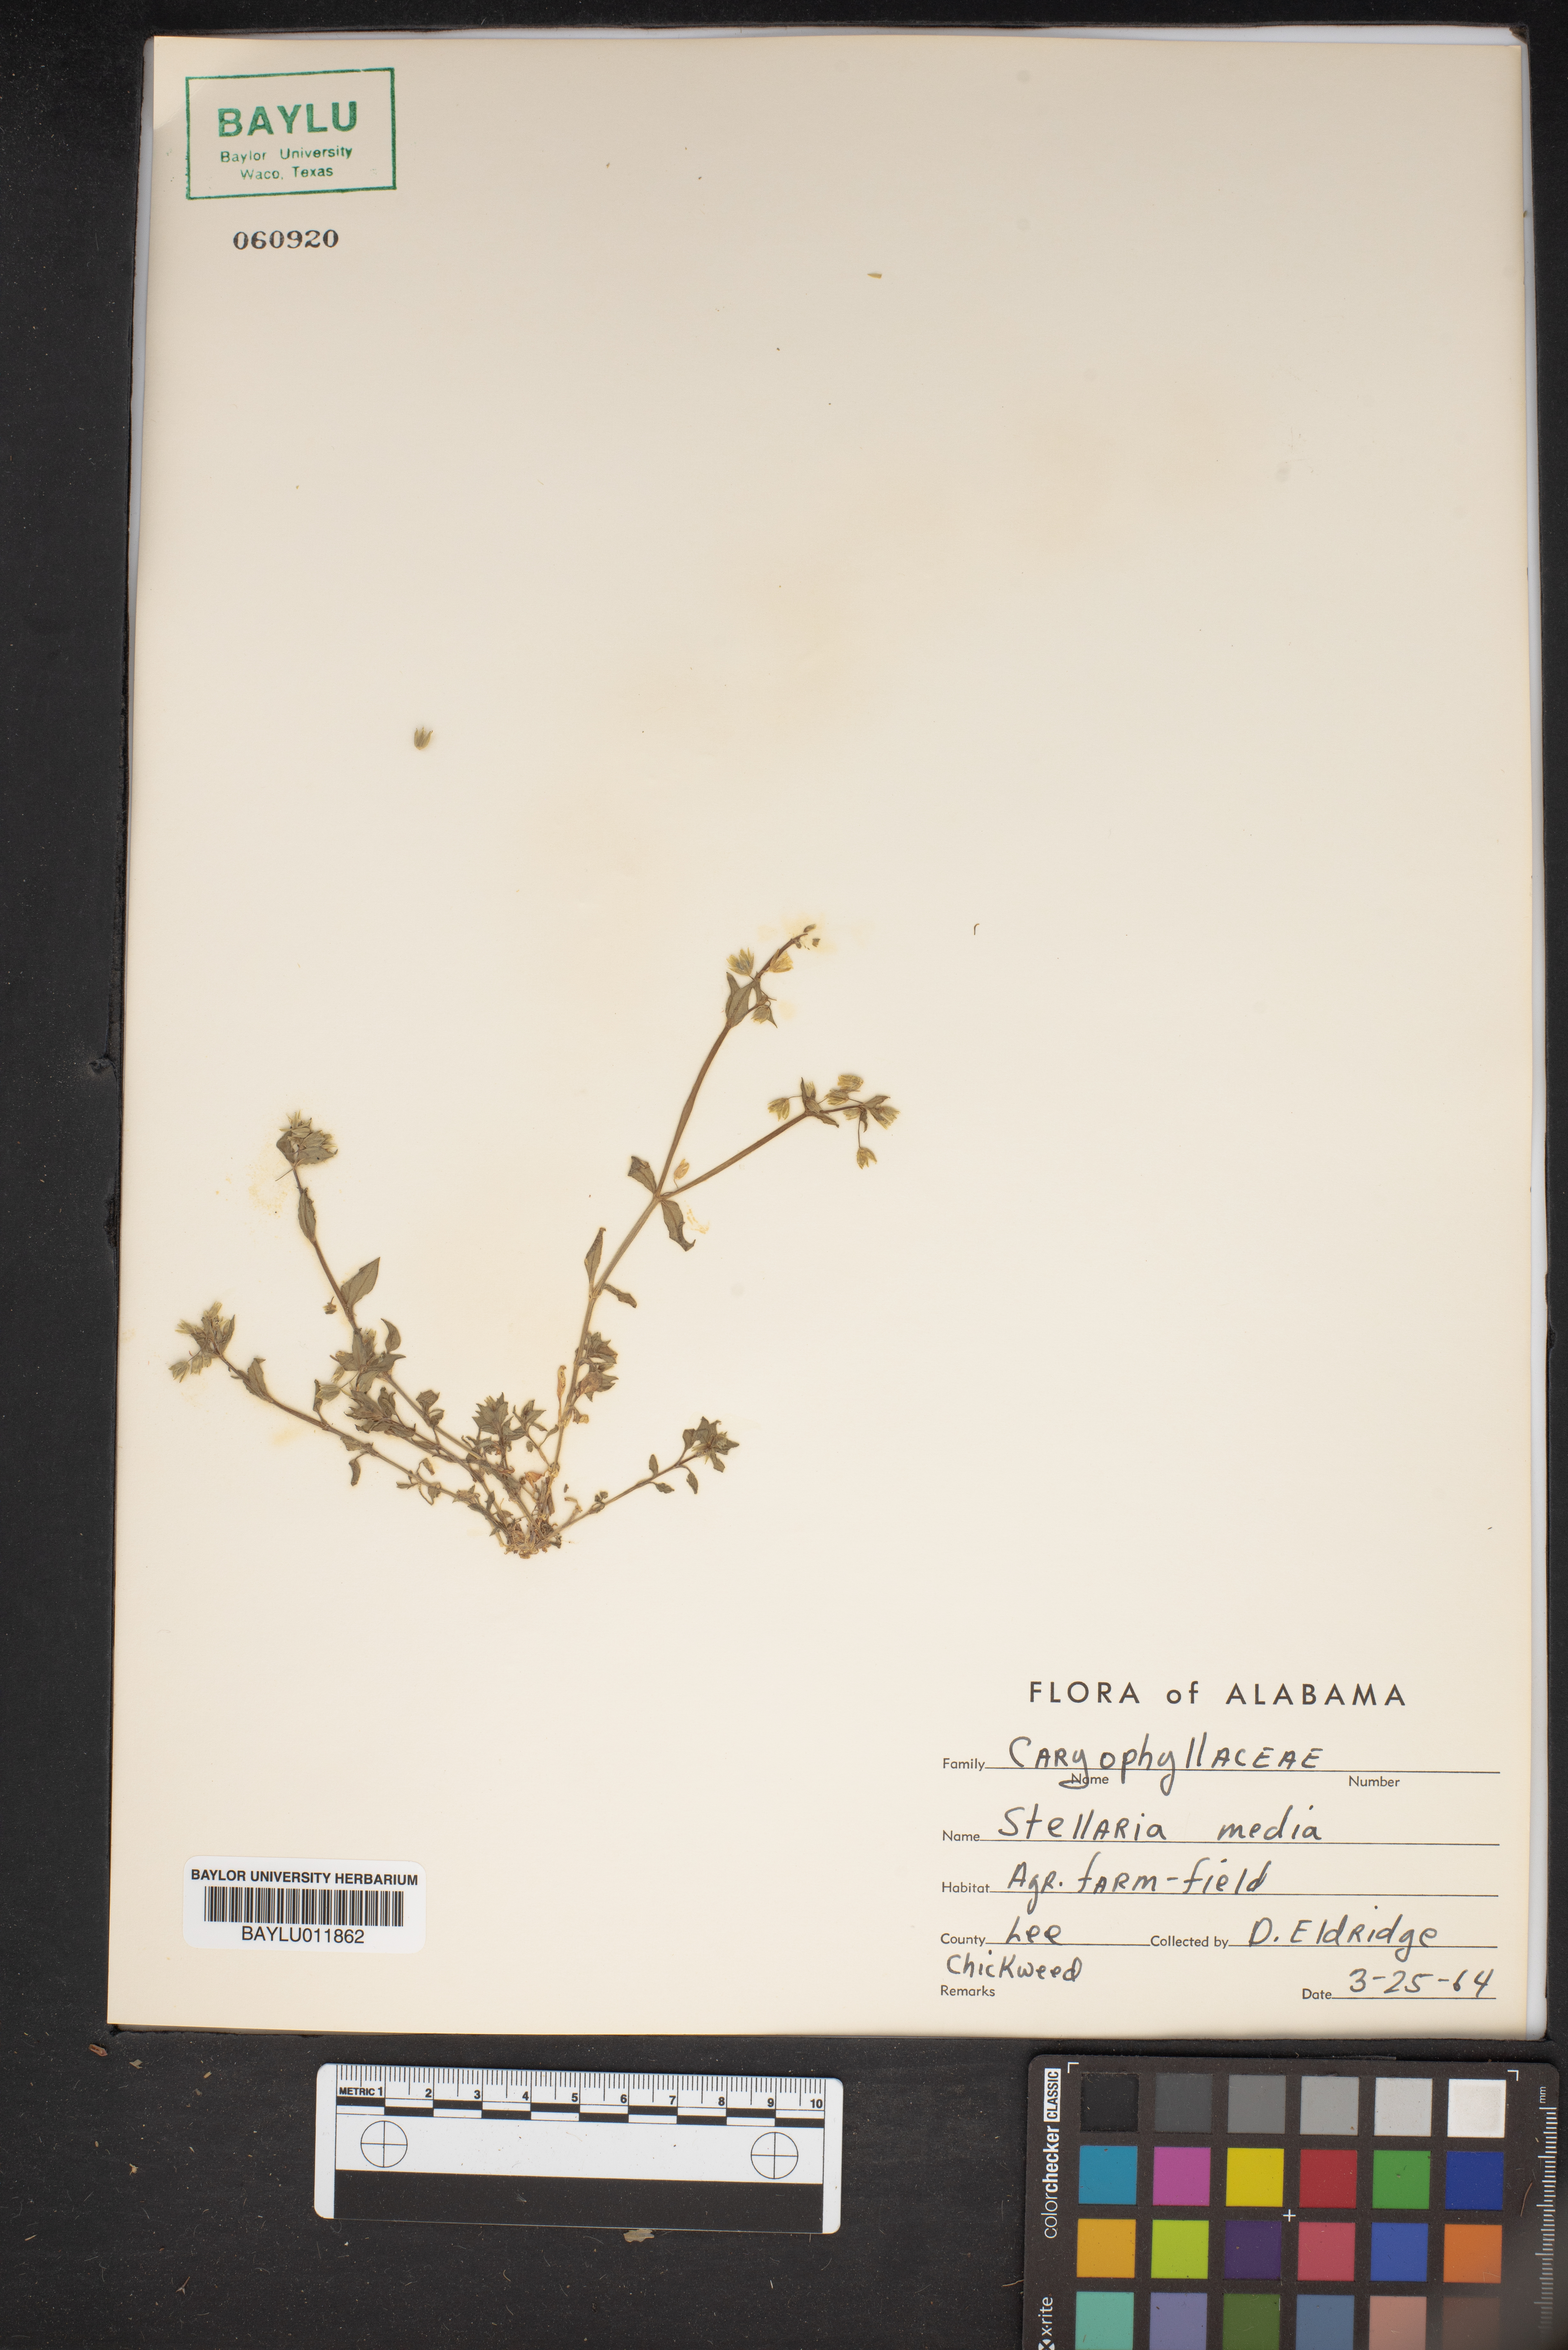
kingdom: Plantae
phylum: Tracheophyta
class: Magnoliopsida
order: Caryophyllales
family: Caryophyllaceae
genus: Stellaria
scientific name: Stellaria media
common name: Common chickweed
